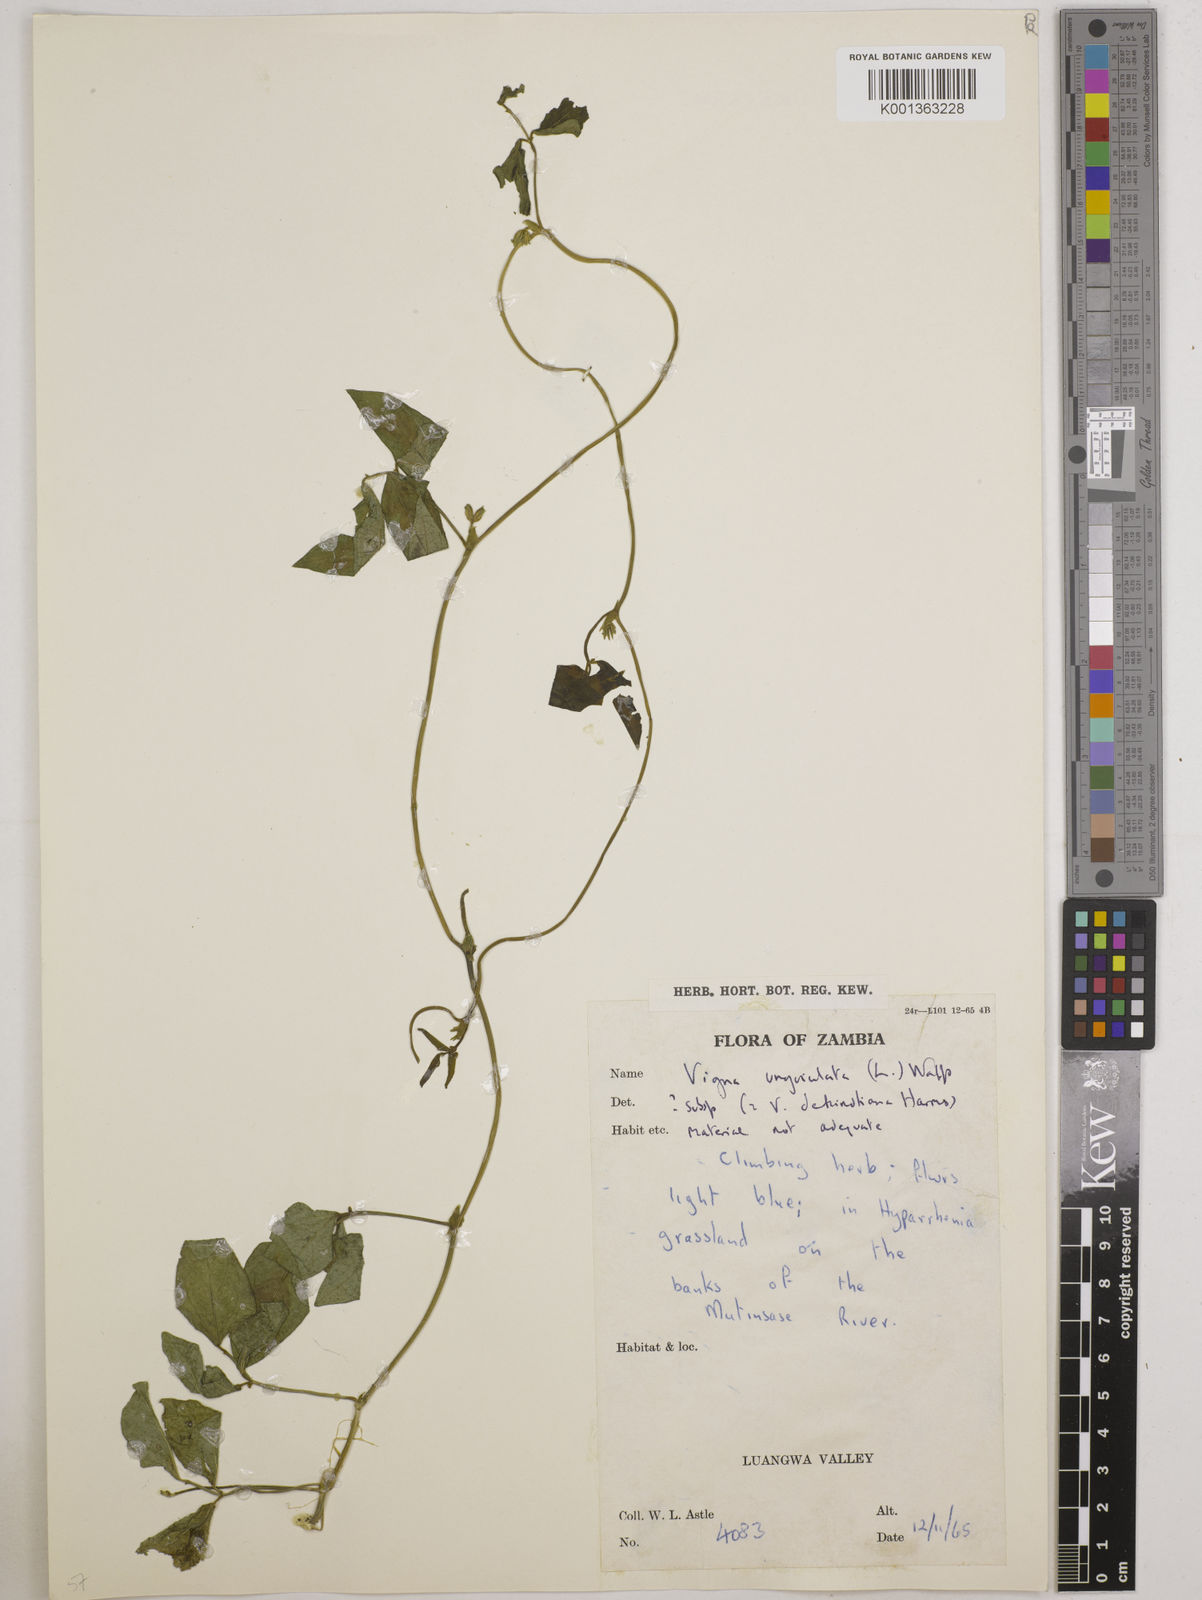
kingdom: Plantae
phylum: Tracheophyta
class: Magnoliopsida
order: Fabales
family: Fabaceae
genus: Vigna
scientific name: Vigna unguiculata
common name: Cowpea
